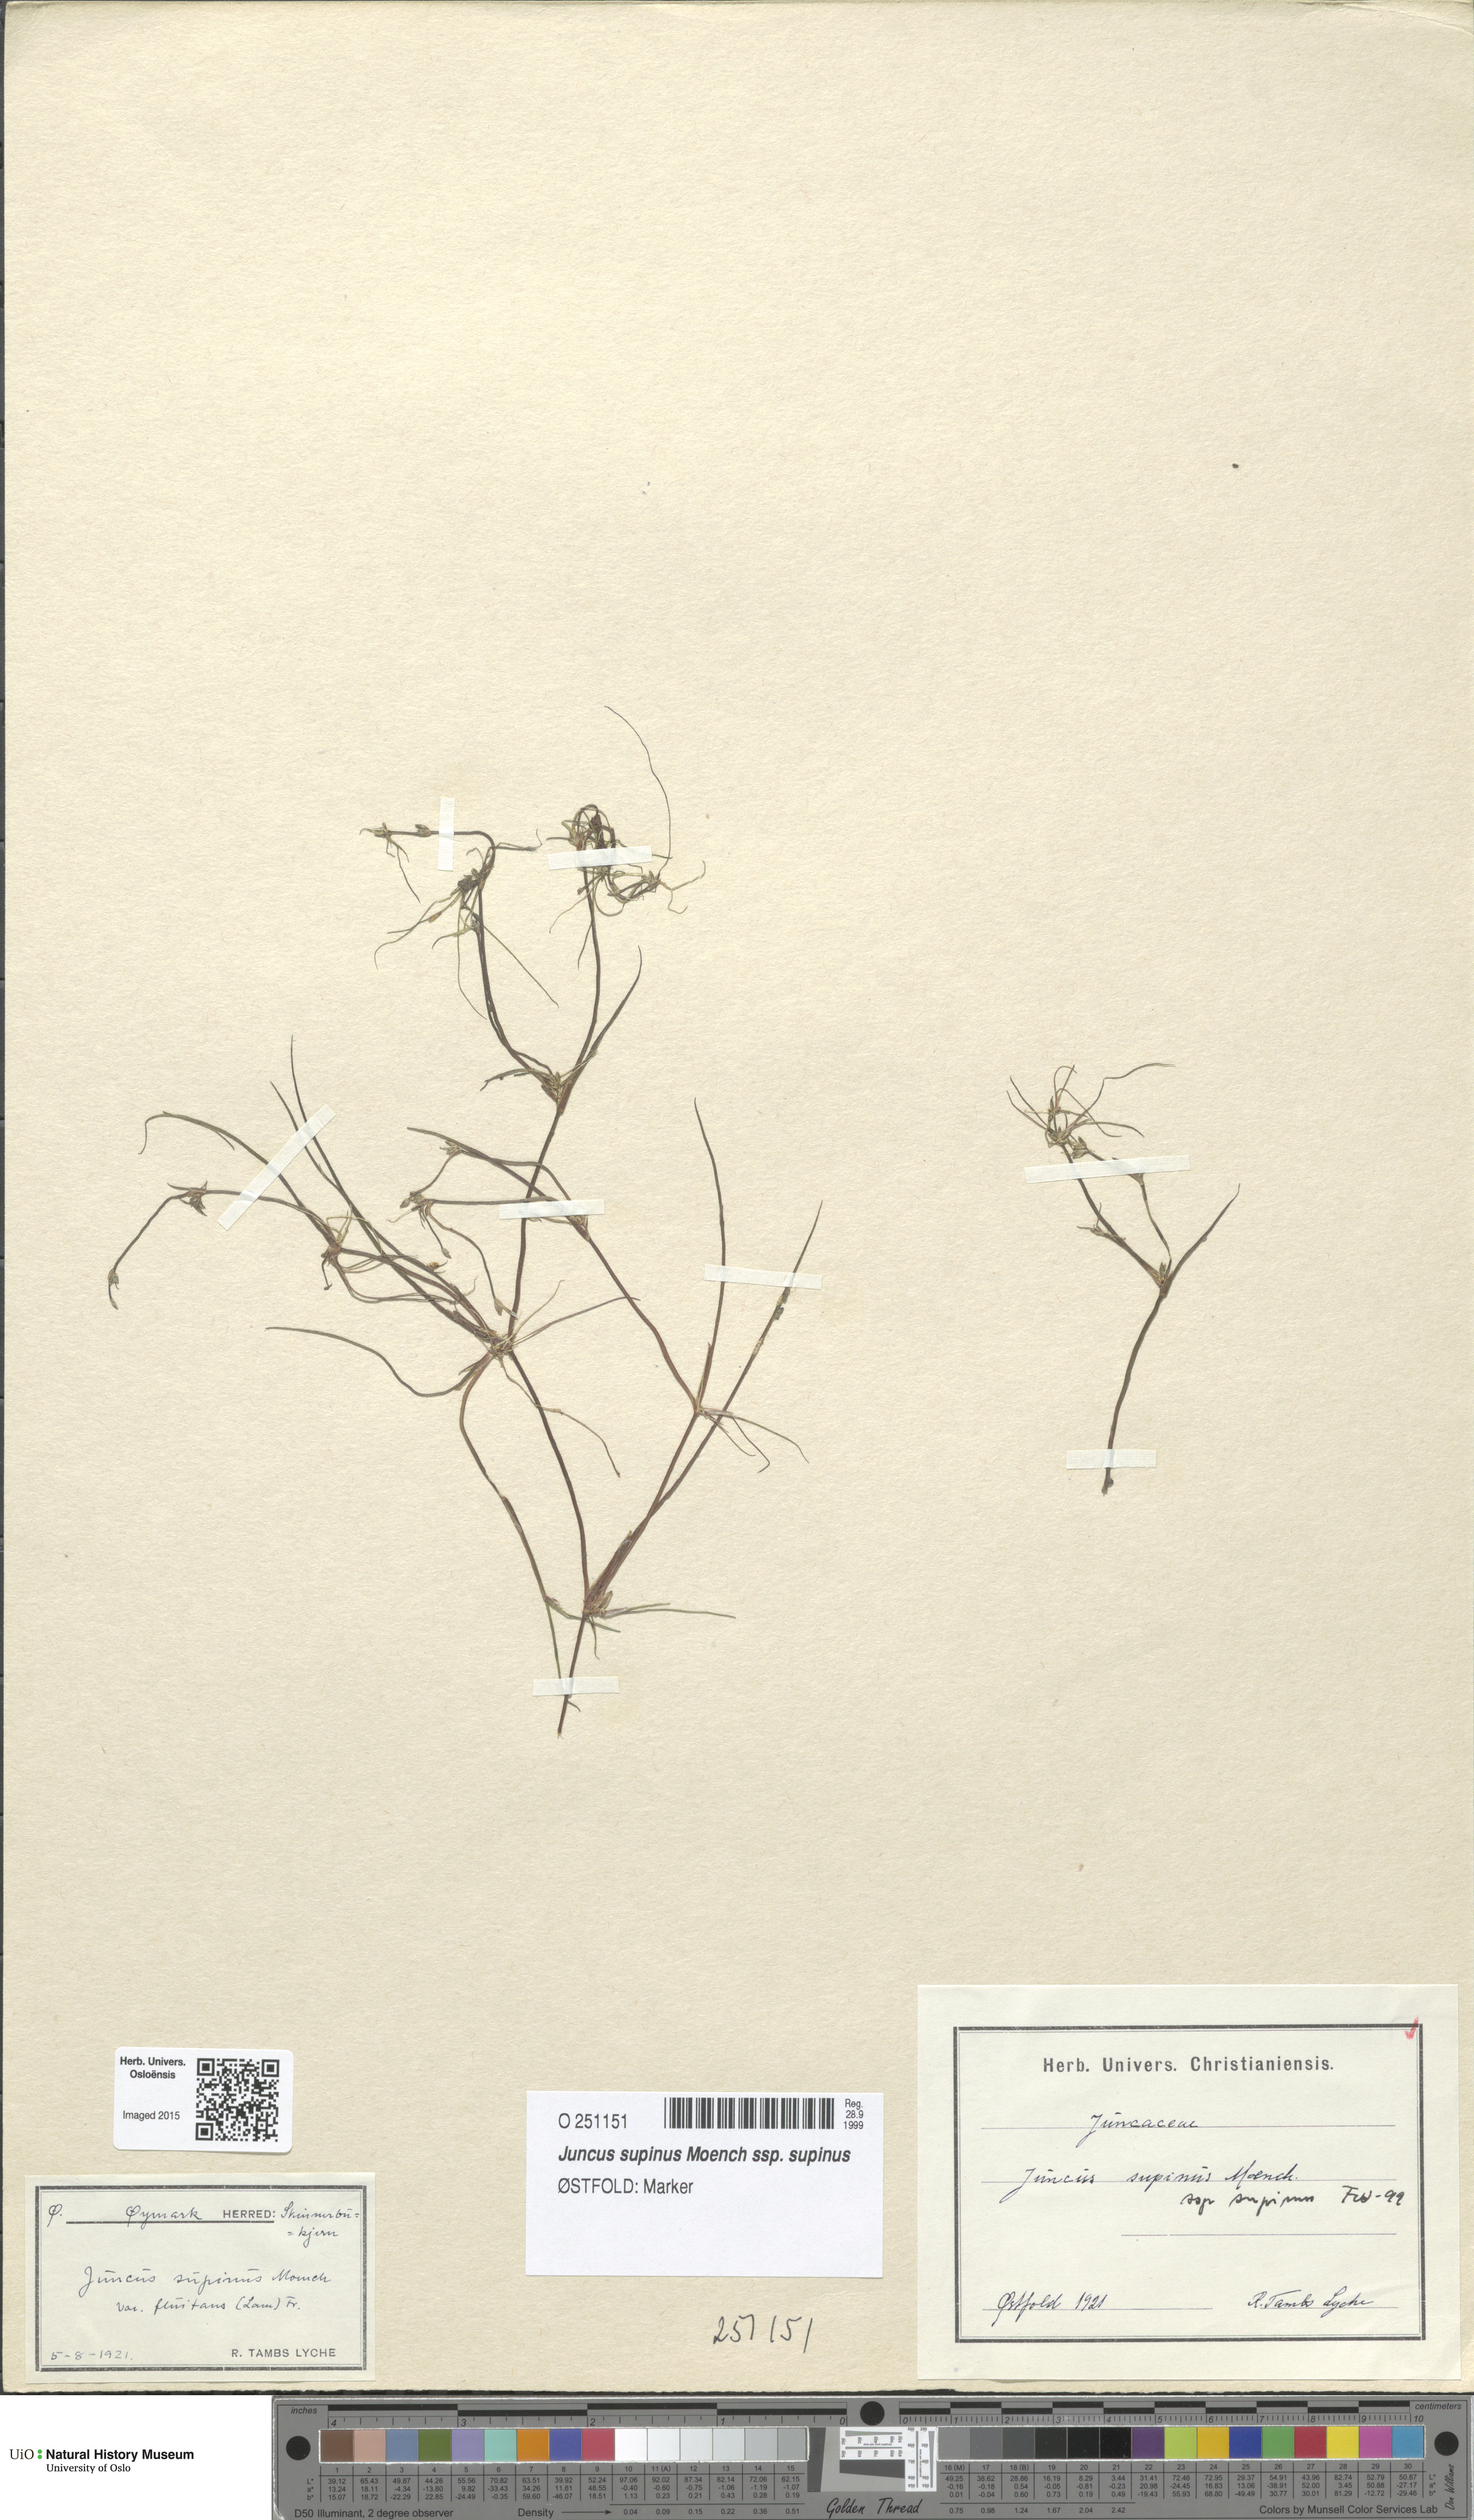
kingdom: Plantae
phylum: Tracheophyta
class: Liliopsida
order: Poales
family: Juncaceae
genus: Juncus
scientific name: Juncus bulbosus
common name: Bulbous rush
